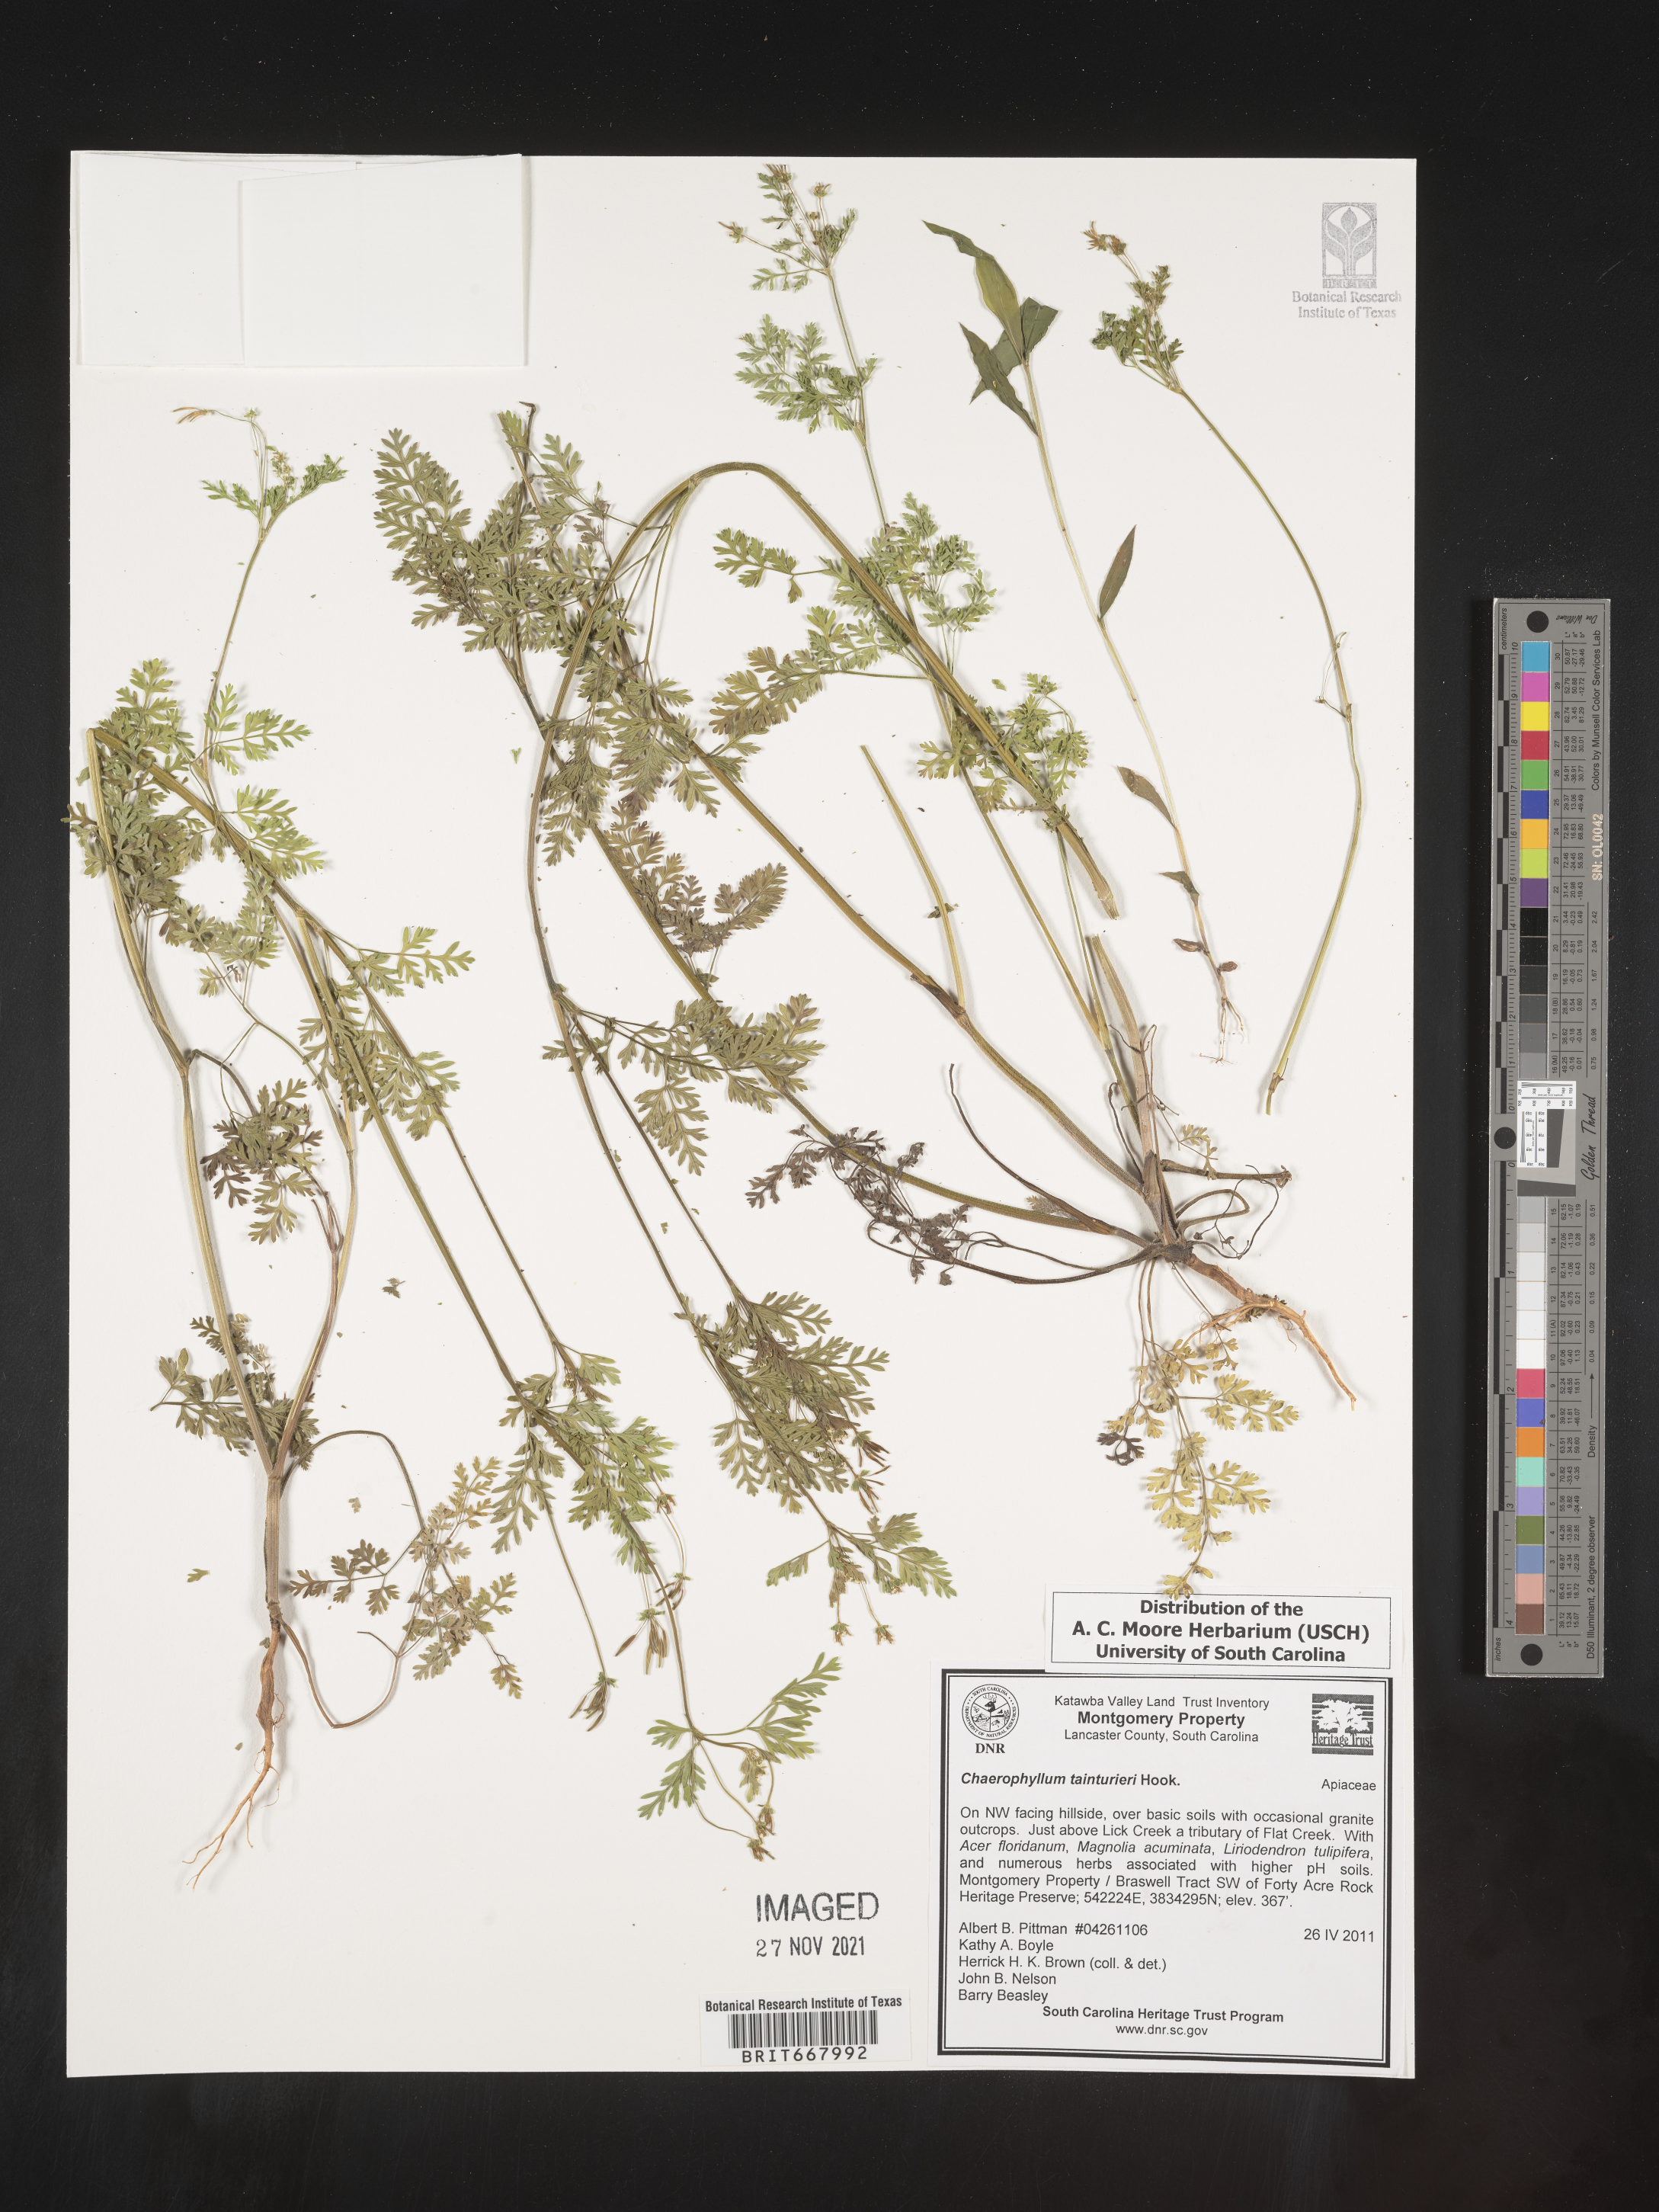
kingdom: Plantae
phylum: Tracheophyta
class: Magnoliopsida
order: Apiales
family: Apiaceae
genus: Chaerophyllum
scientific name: Chaerophyllum tainturieri
